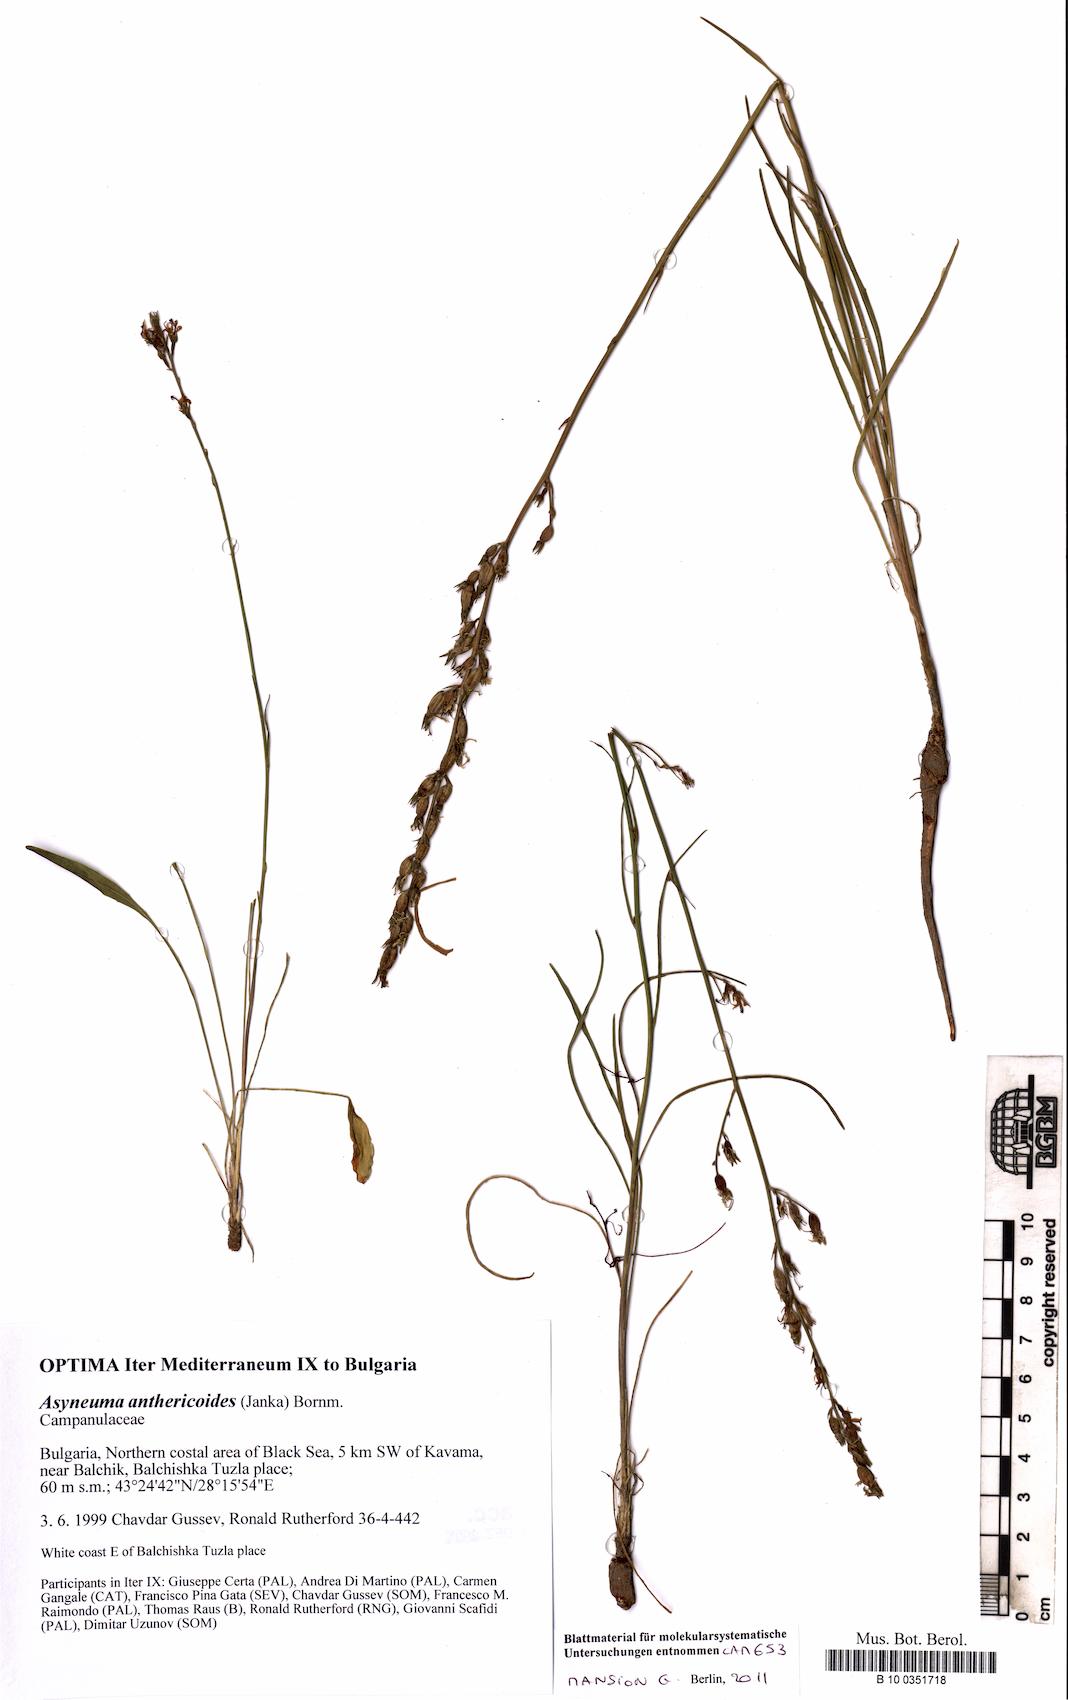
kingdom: Plantae
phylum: Tracheophyta
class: Magnoliopsida
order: Asterales
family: Campanulaceae
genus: Asyneuma
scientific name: Asyneuma anthericoides
